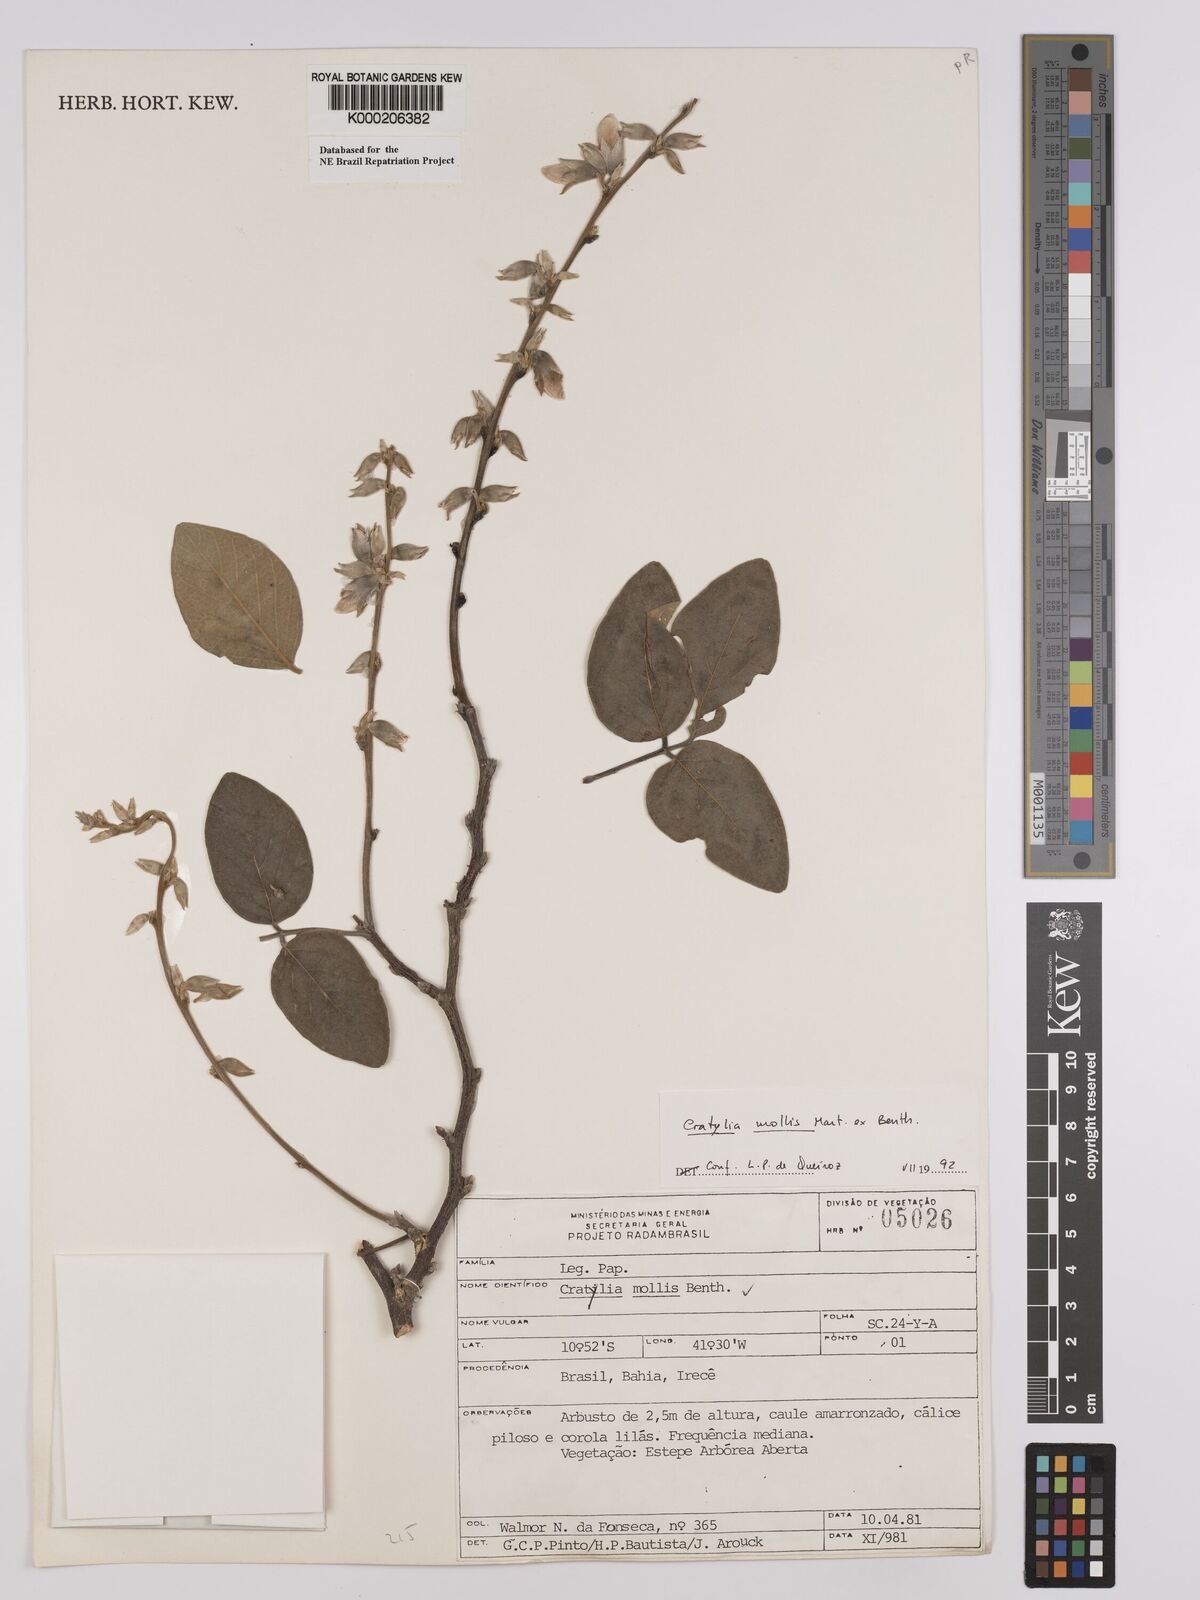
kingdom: Plantae
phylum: Tracheophyta
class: Magnoliopsida
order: Fabales
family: Fabaceae
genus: Cratylia
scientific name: Cratylia mollis
